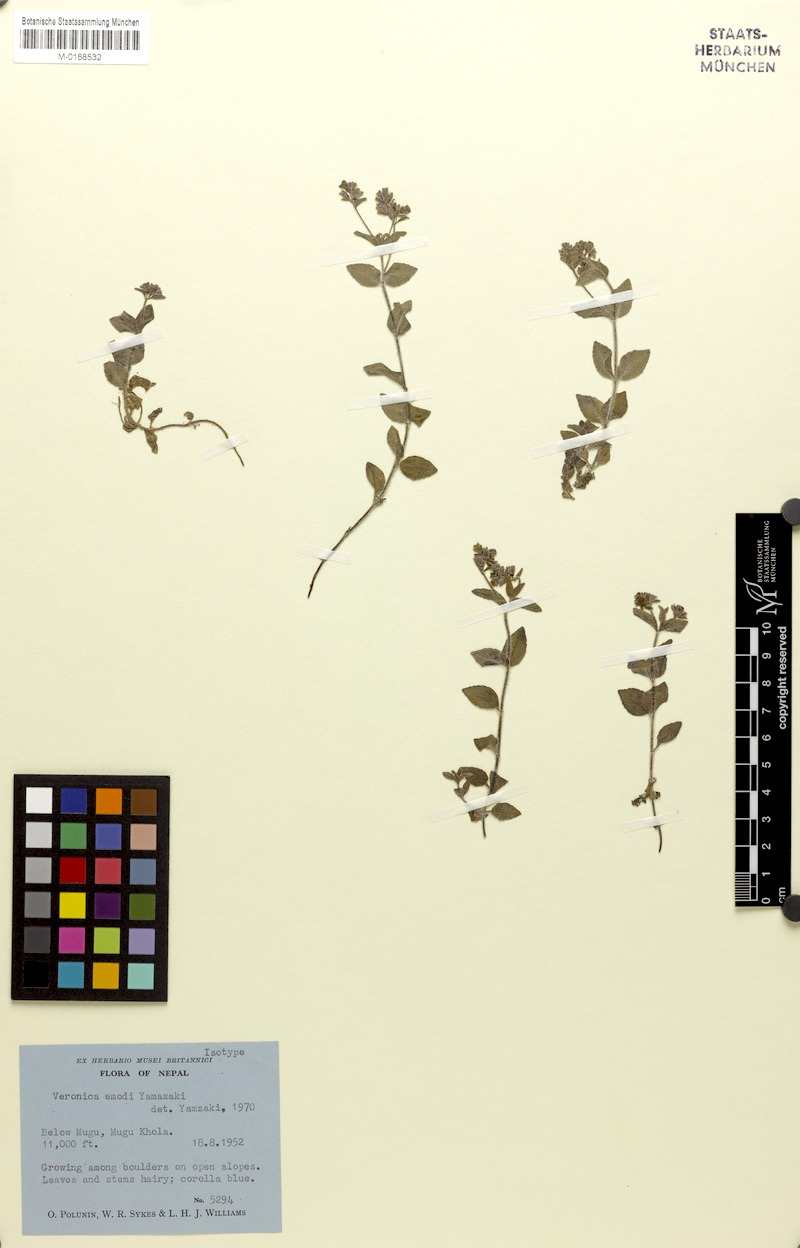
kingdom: Plantae
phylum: Tracheophyta
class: Magnoliopsida
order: Lamiales
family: Plantaginaceae
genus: Veronica
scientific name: Veronica emodi
